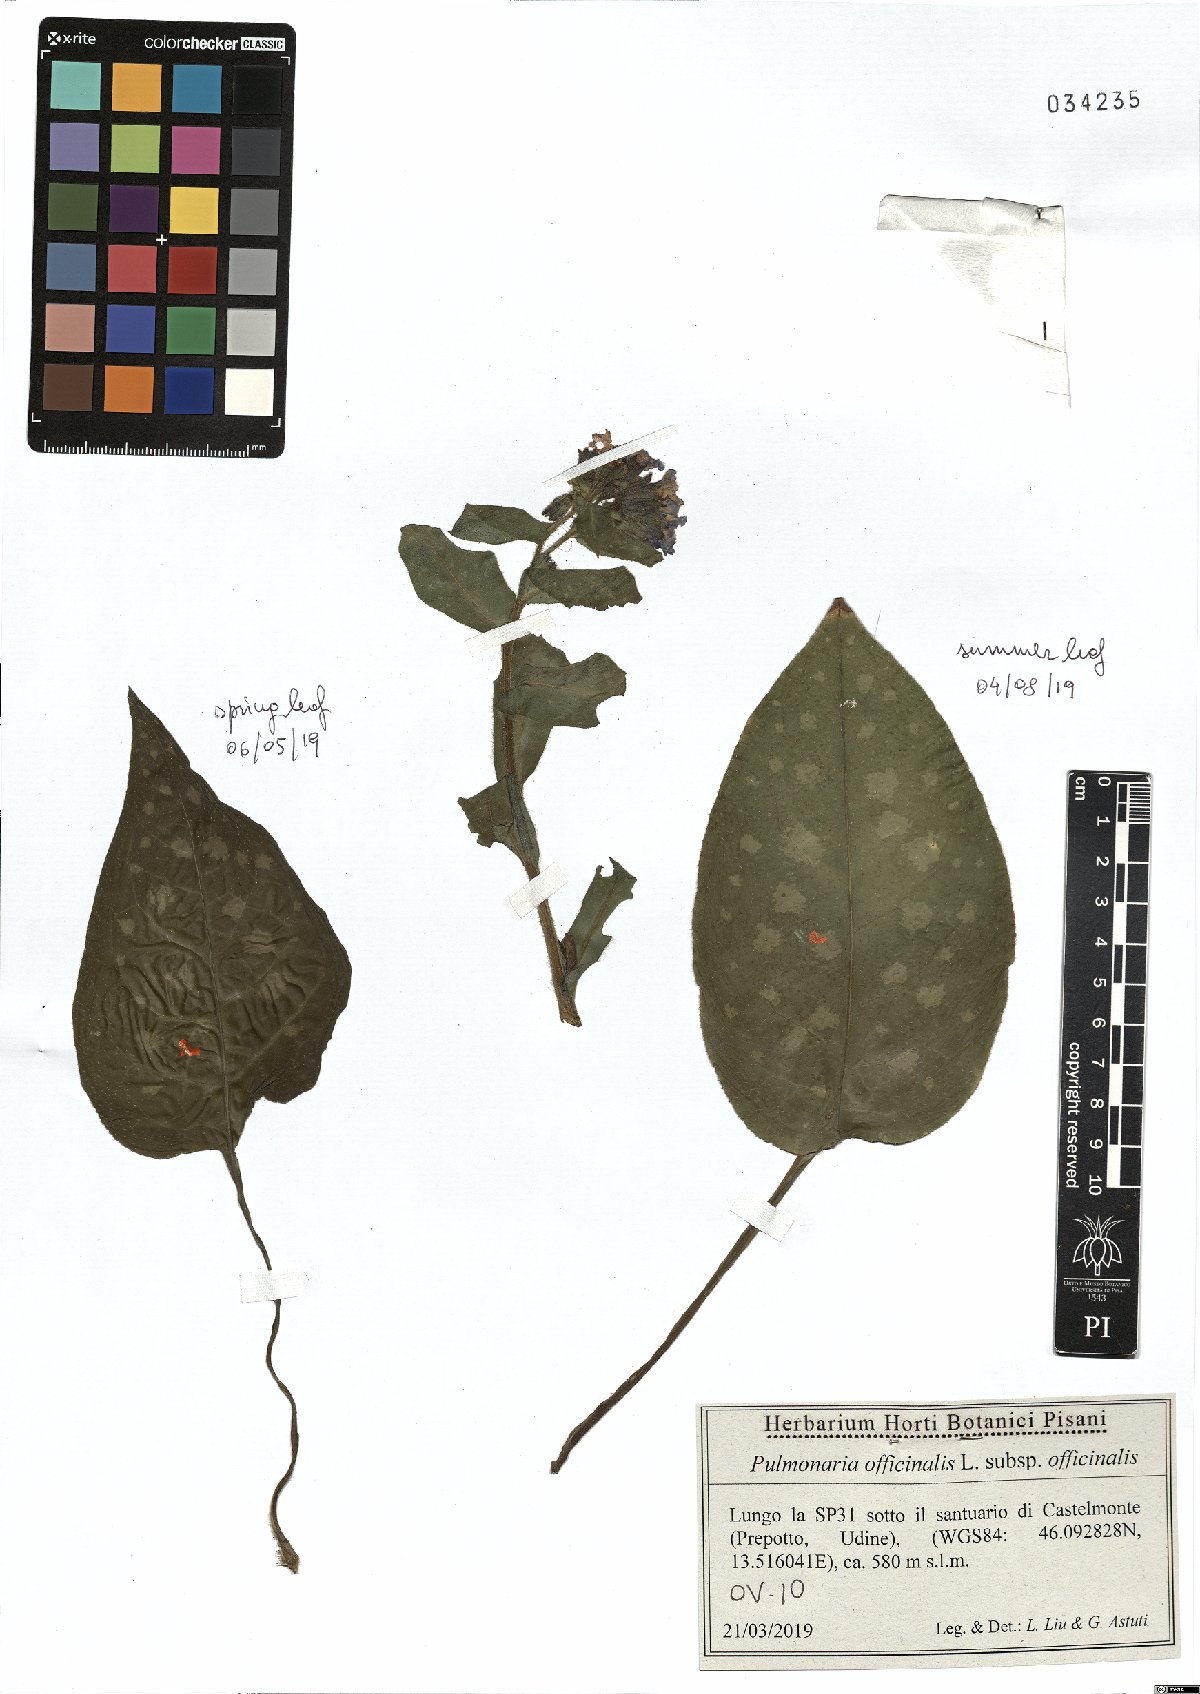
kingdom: Plantae
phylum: Tracheophyta
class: Magnoliopsida
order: Boraginales
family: Boraginaceae
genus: Pulmonaria
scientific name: Pulmonaria officinalis
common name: Lungwort
